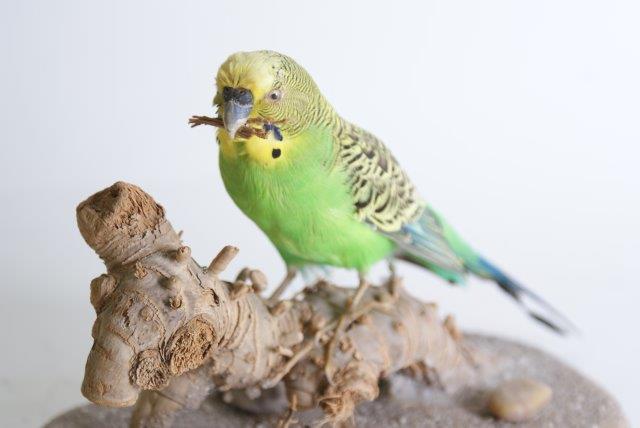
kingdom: Animalia
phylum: Chordata
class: Aves
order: Psittaciformes
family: Psittacidae
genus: Melopsittacus
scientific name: Melopsittacus undulatus
